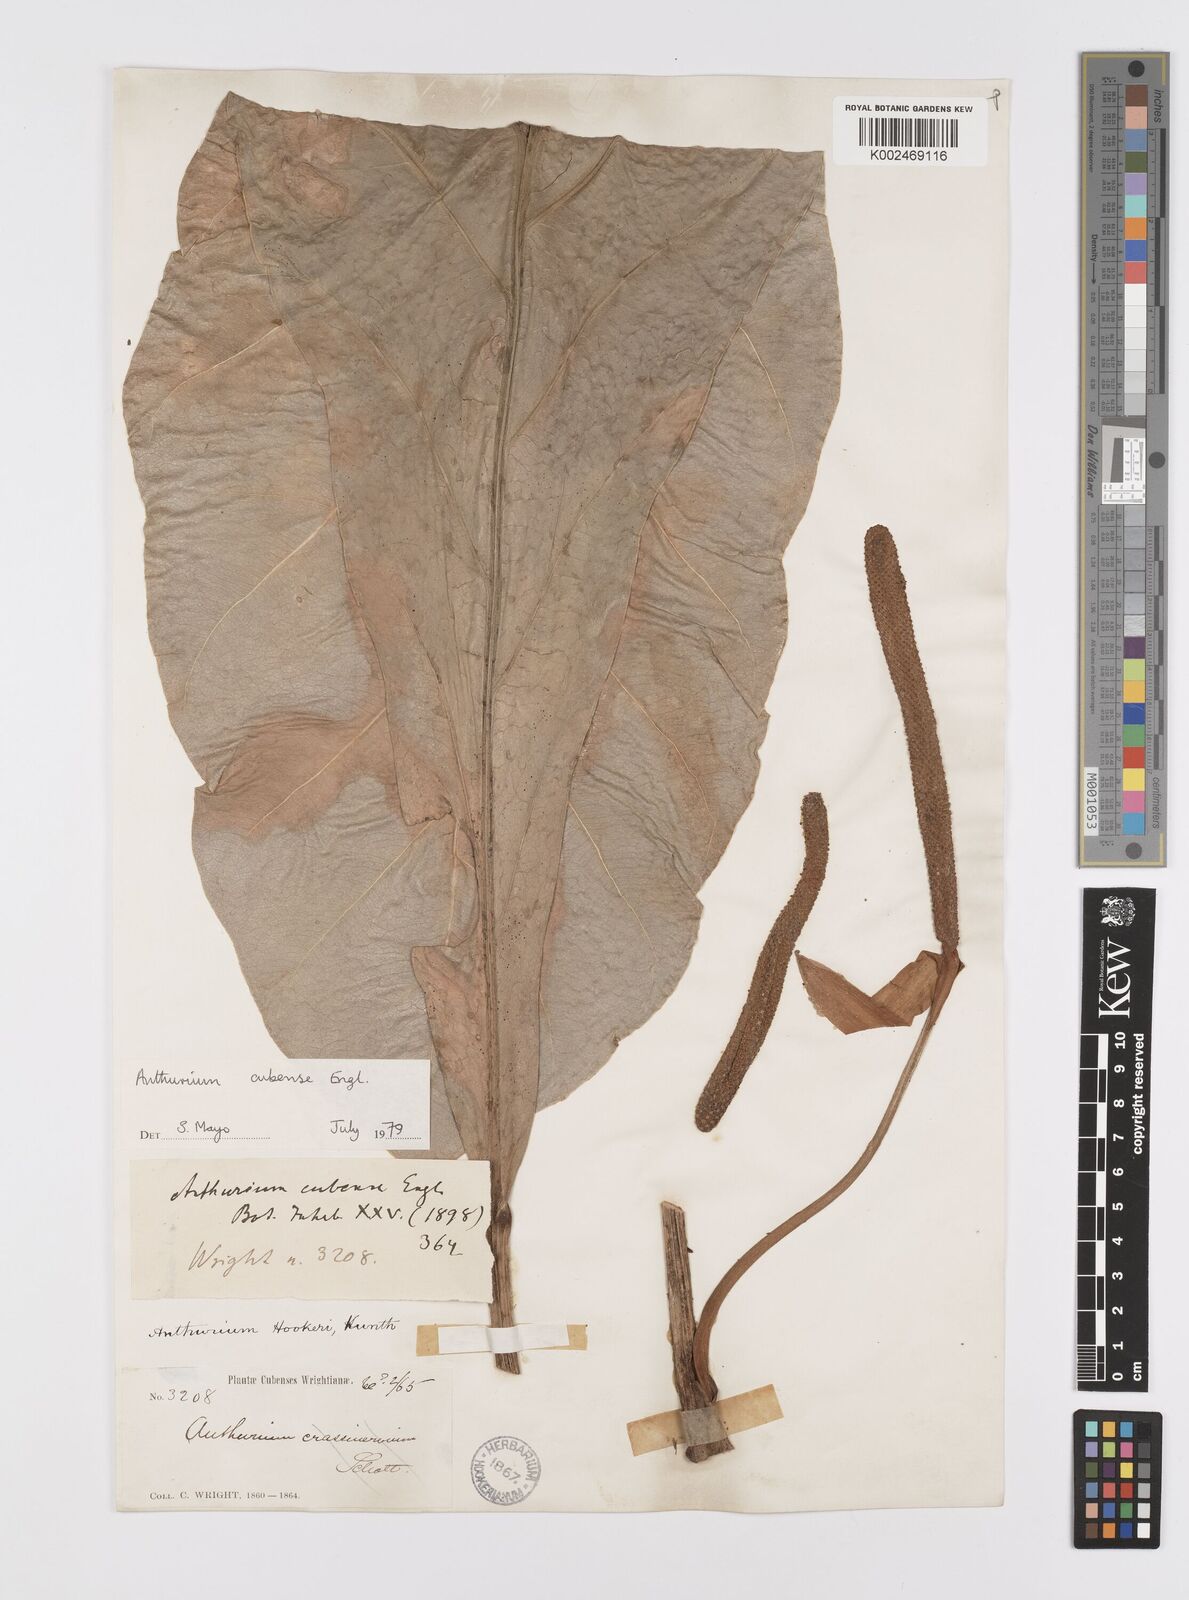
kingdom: Plantae
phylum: Tracheophyta
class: Liliopsida
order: Alismatales
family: Araceae
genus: Anthurium
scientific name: Anthurium cubense
